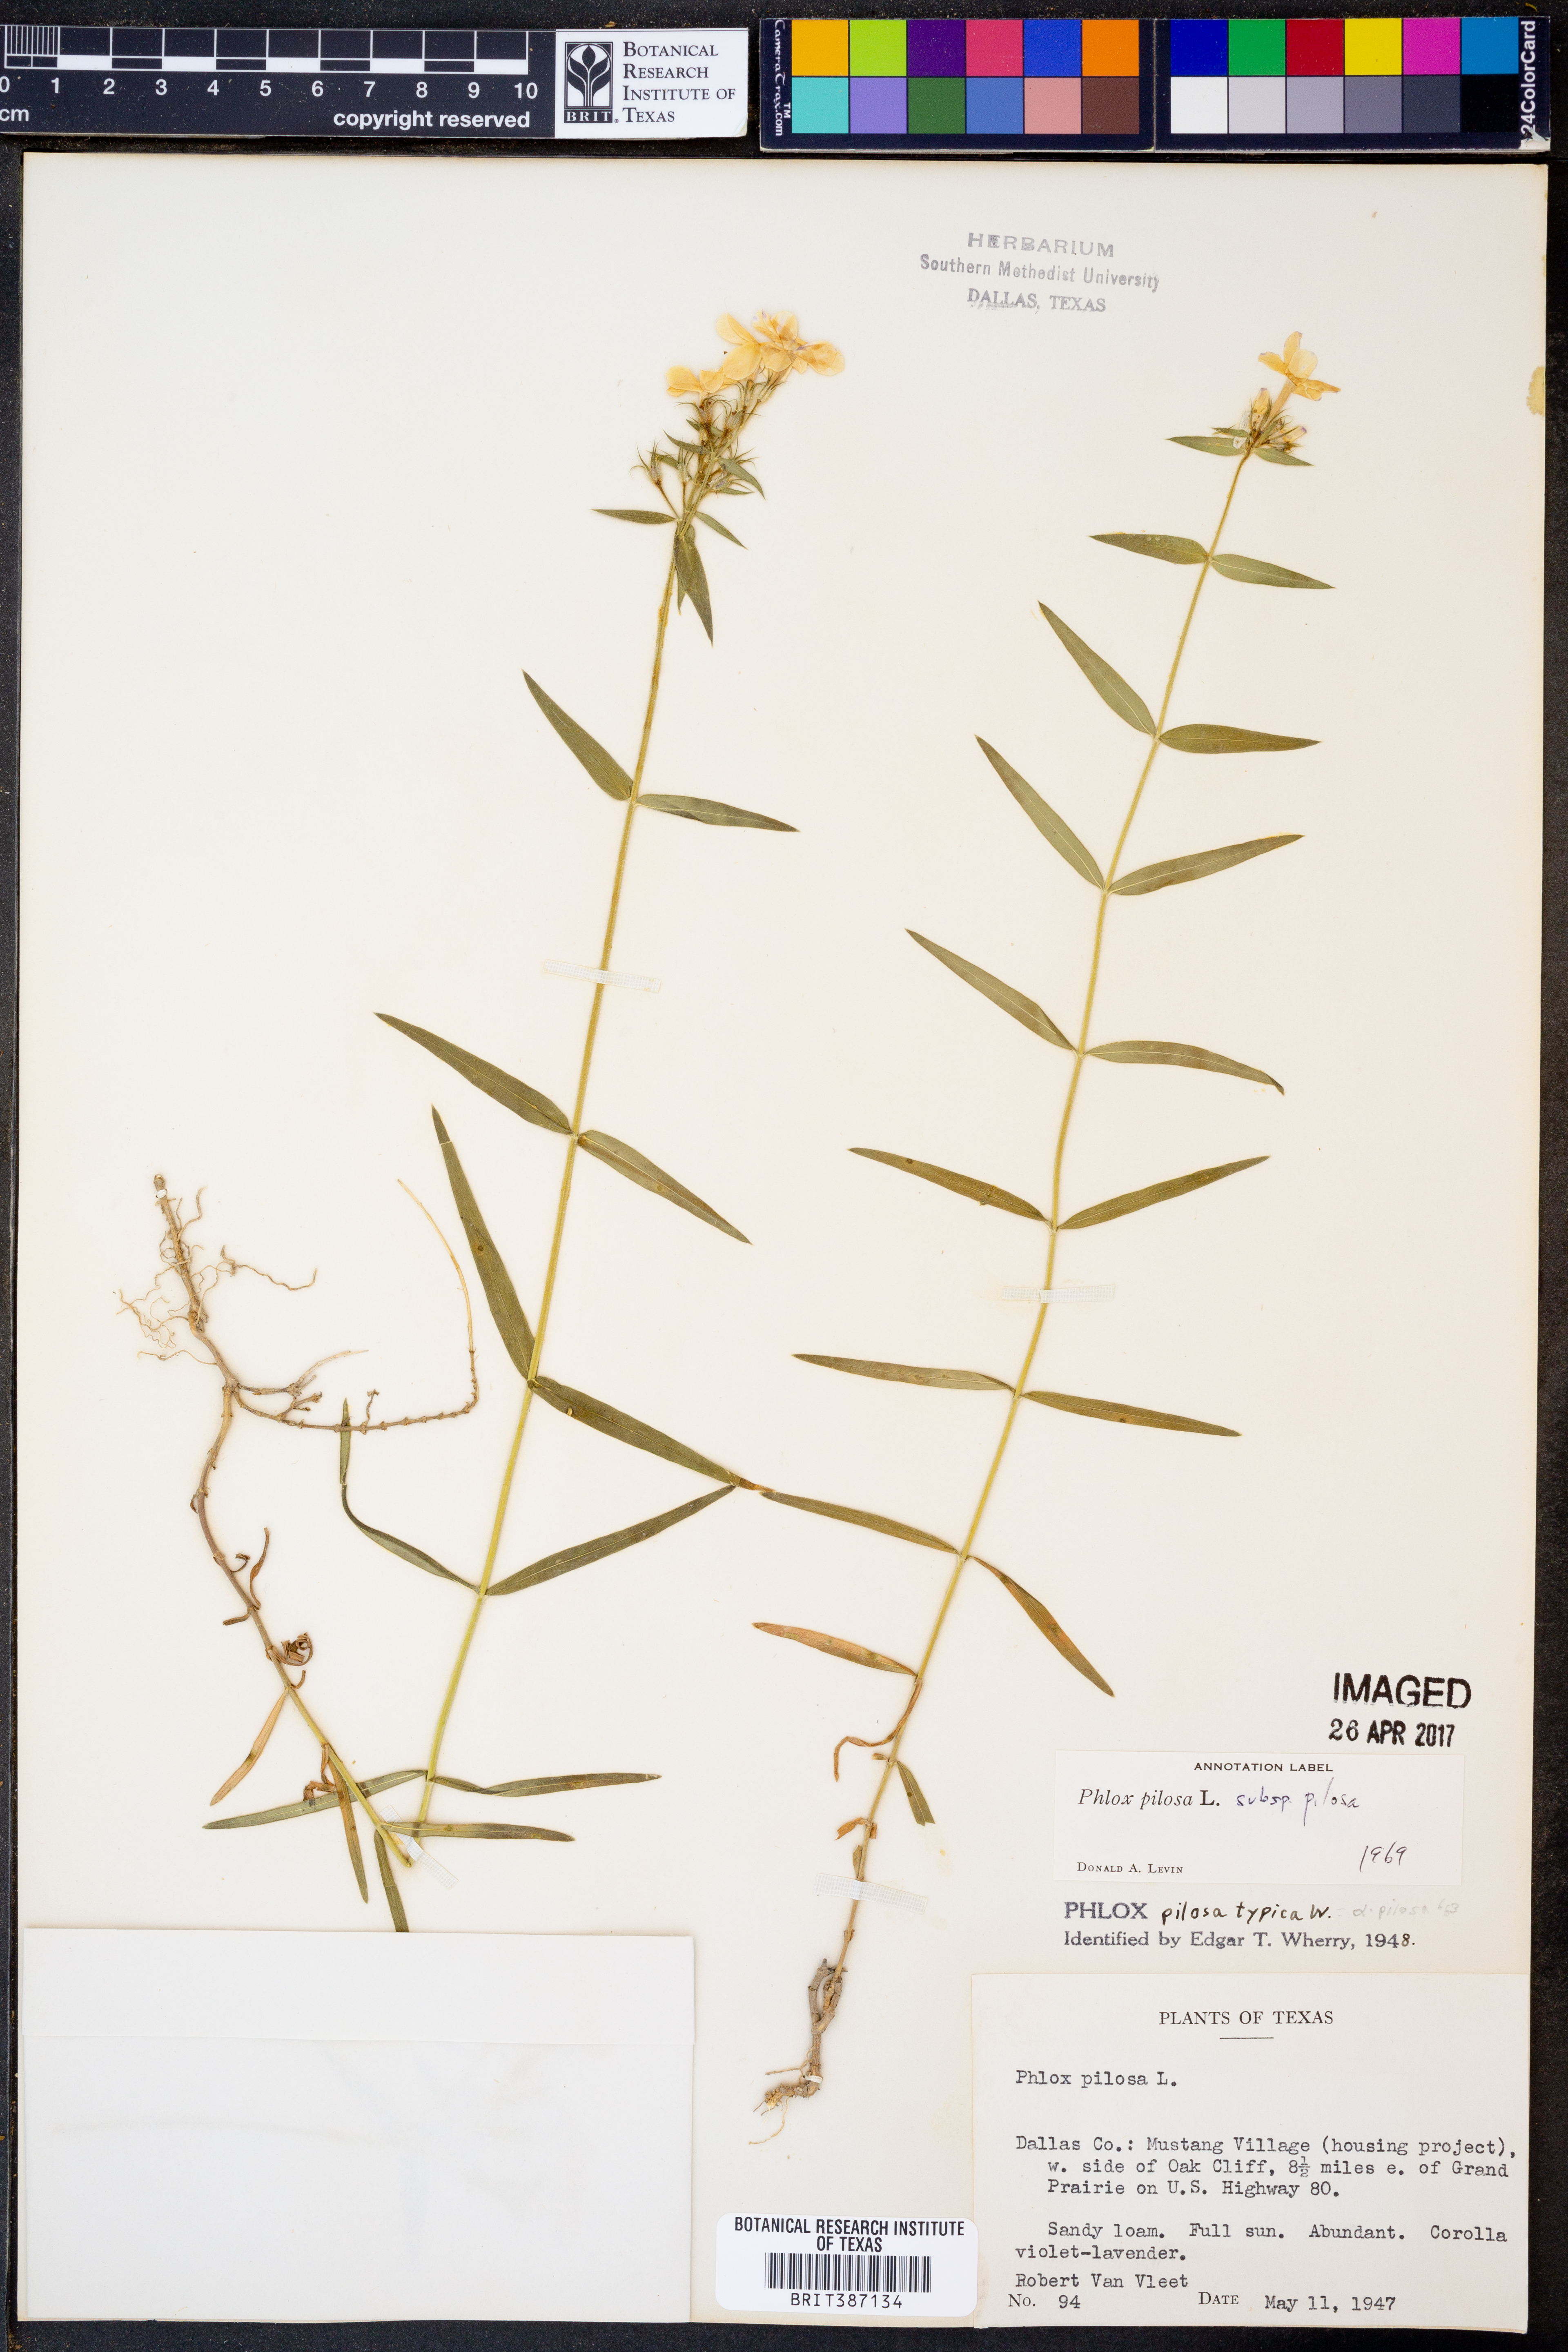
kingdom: Plantae
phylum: Tracheophyta
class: Magnoliopsida
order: Ericales
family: Polemoniaceae
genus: Phlox
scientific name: Phlox pilosa
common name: Prairie phlox
